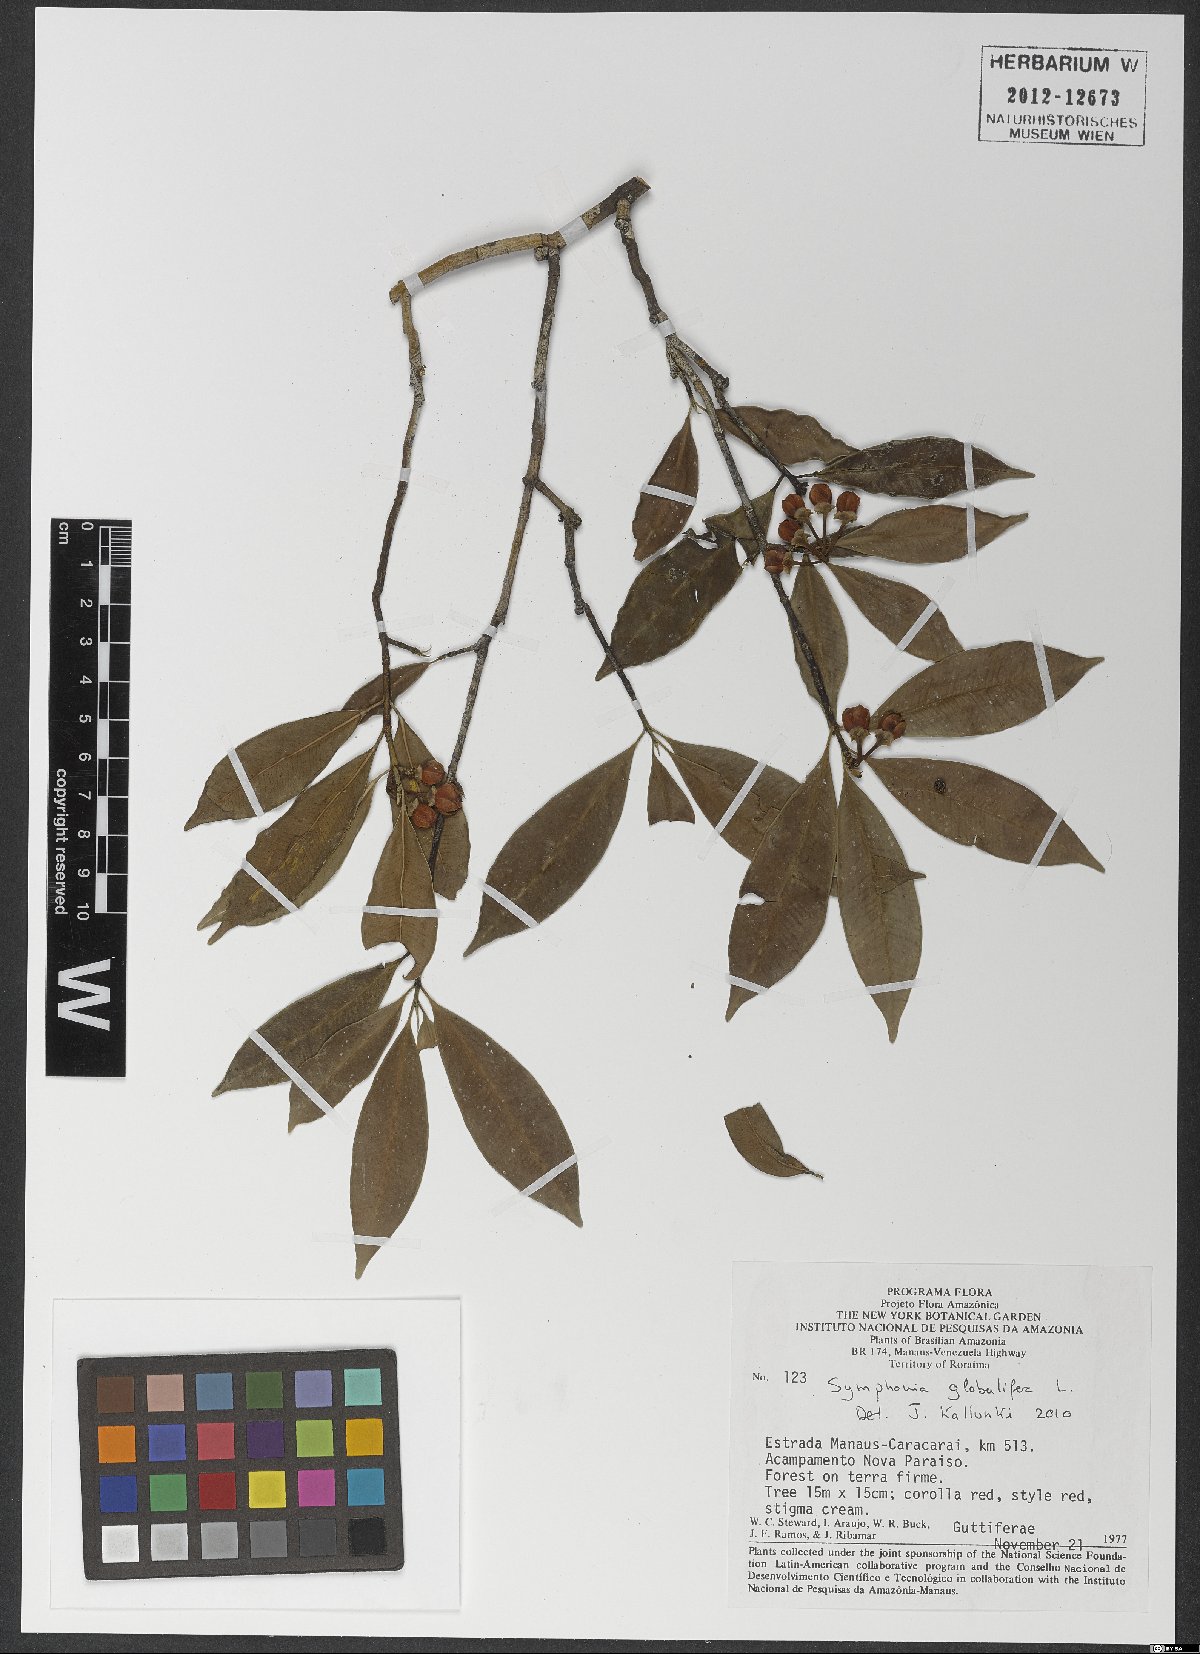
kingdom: Plantae
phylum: Tracheophyta
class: Magnoliopsida
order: Malpighiales
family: Clusiaceae
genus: Symphonia
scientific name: Symphonia globulifera
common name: Boarwood
